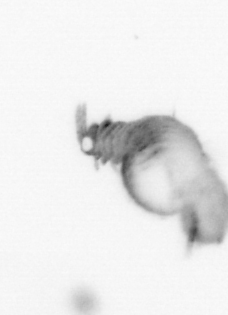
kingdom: Animalia
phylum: Annelida
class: Polychaeta
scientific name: Polychaeta
